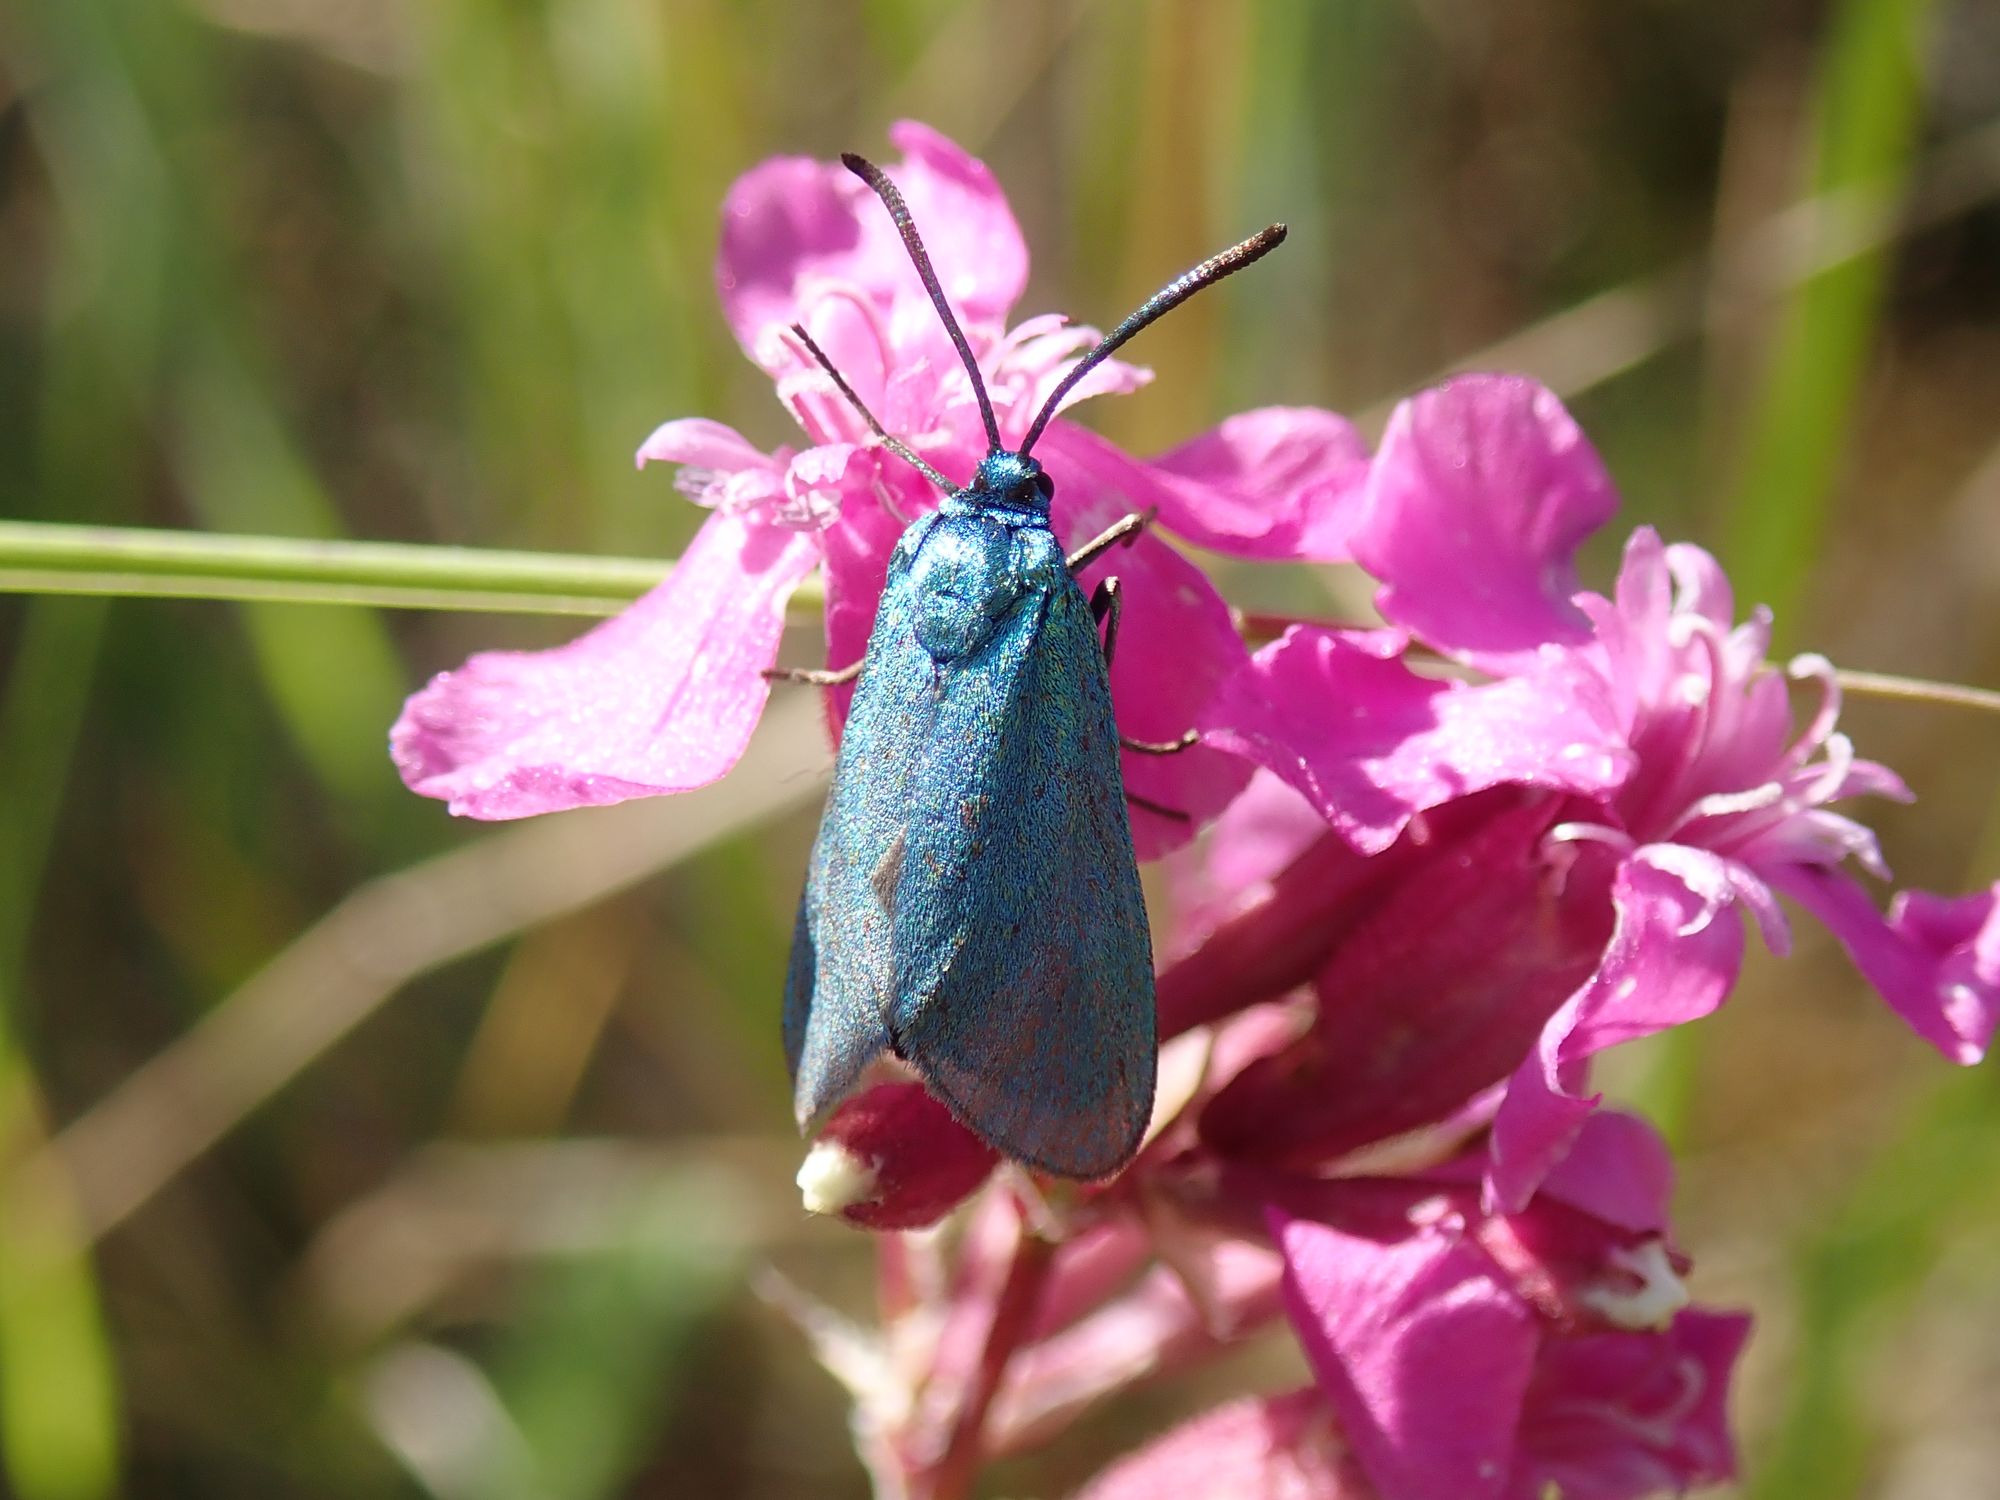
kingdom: Animalia
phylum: Arthropoda
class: Insecta
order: Lepidoptera
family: Zygaenidae
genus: Adscita
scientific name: Adscita statices
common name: Metalvinge
